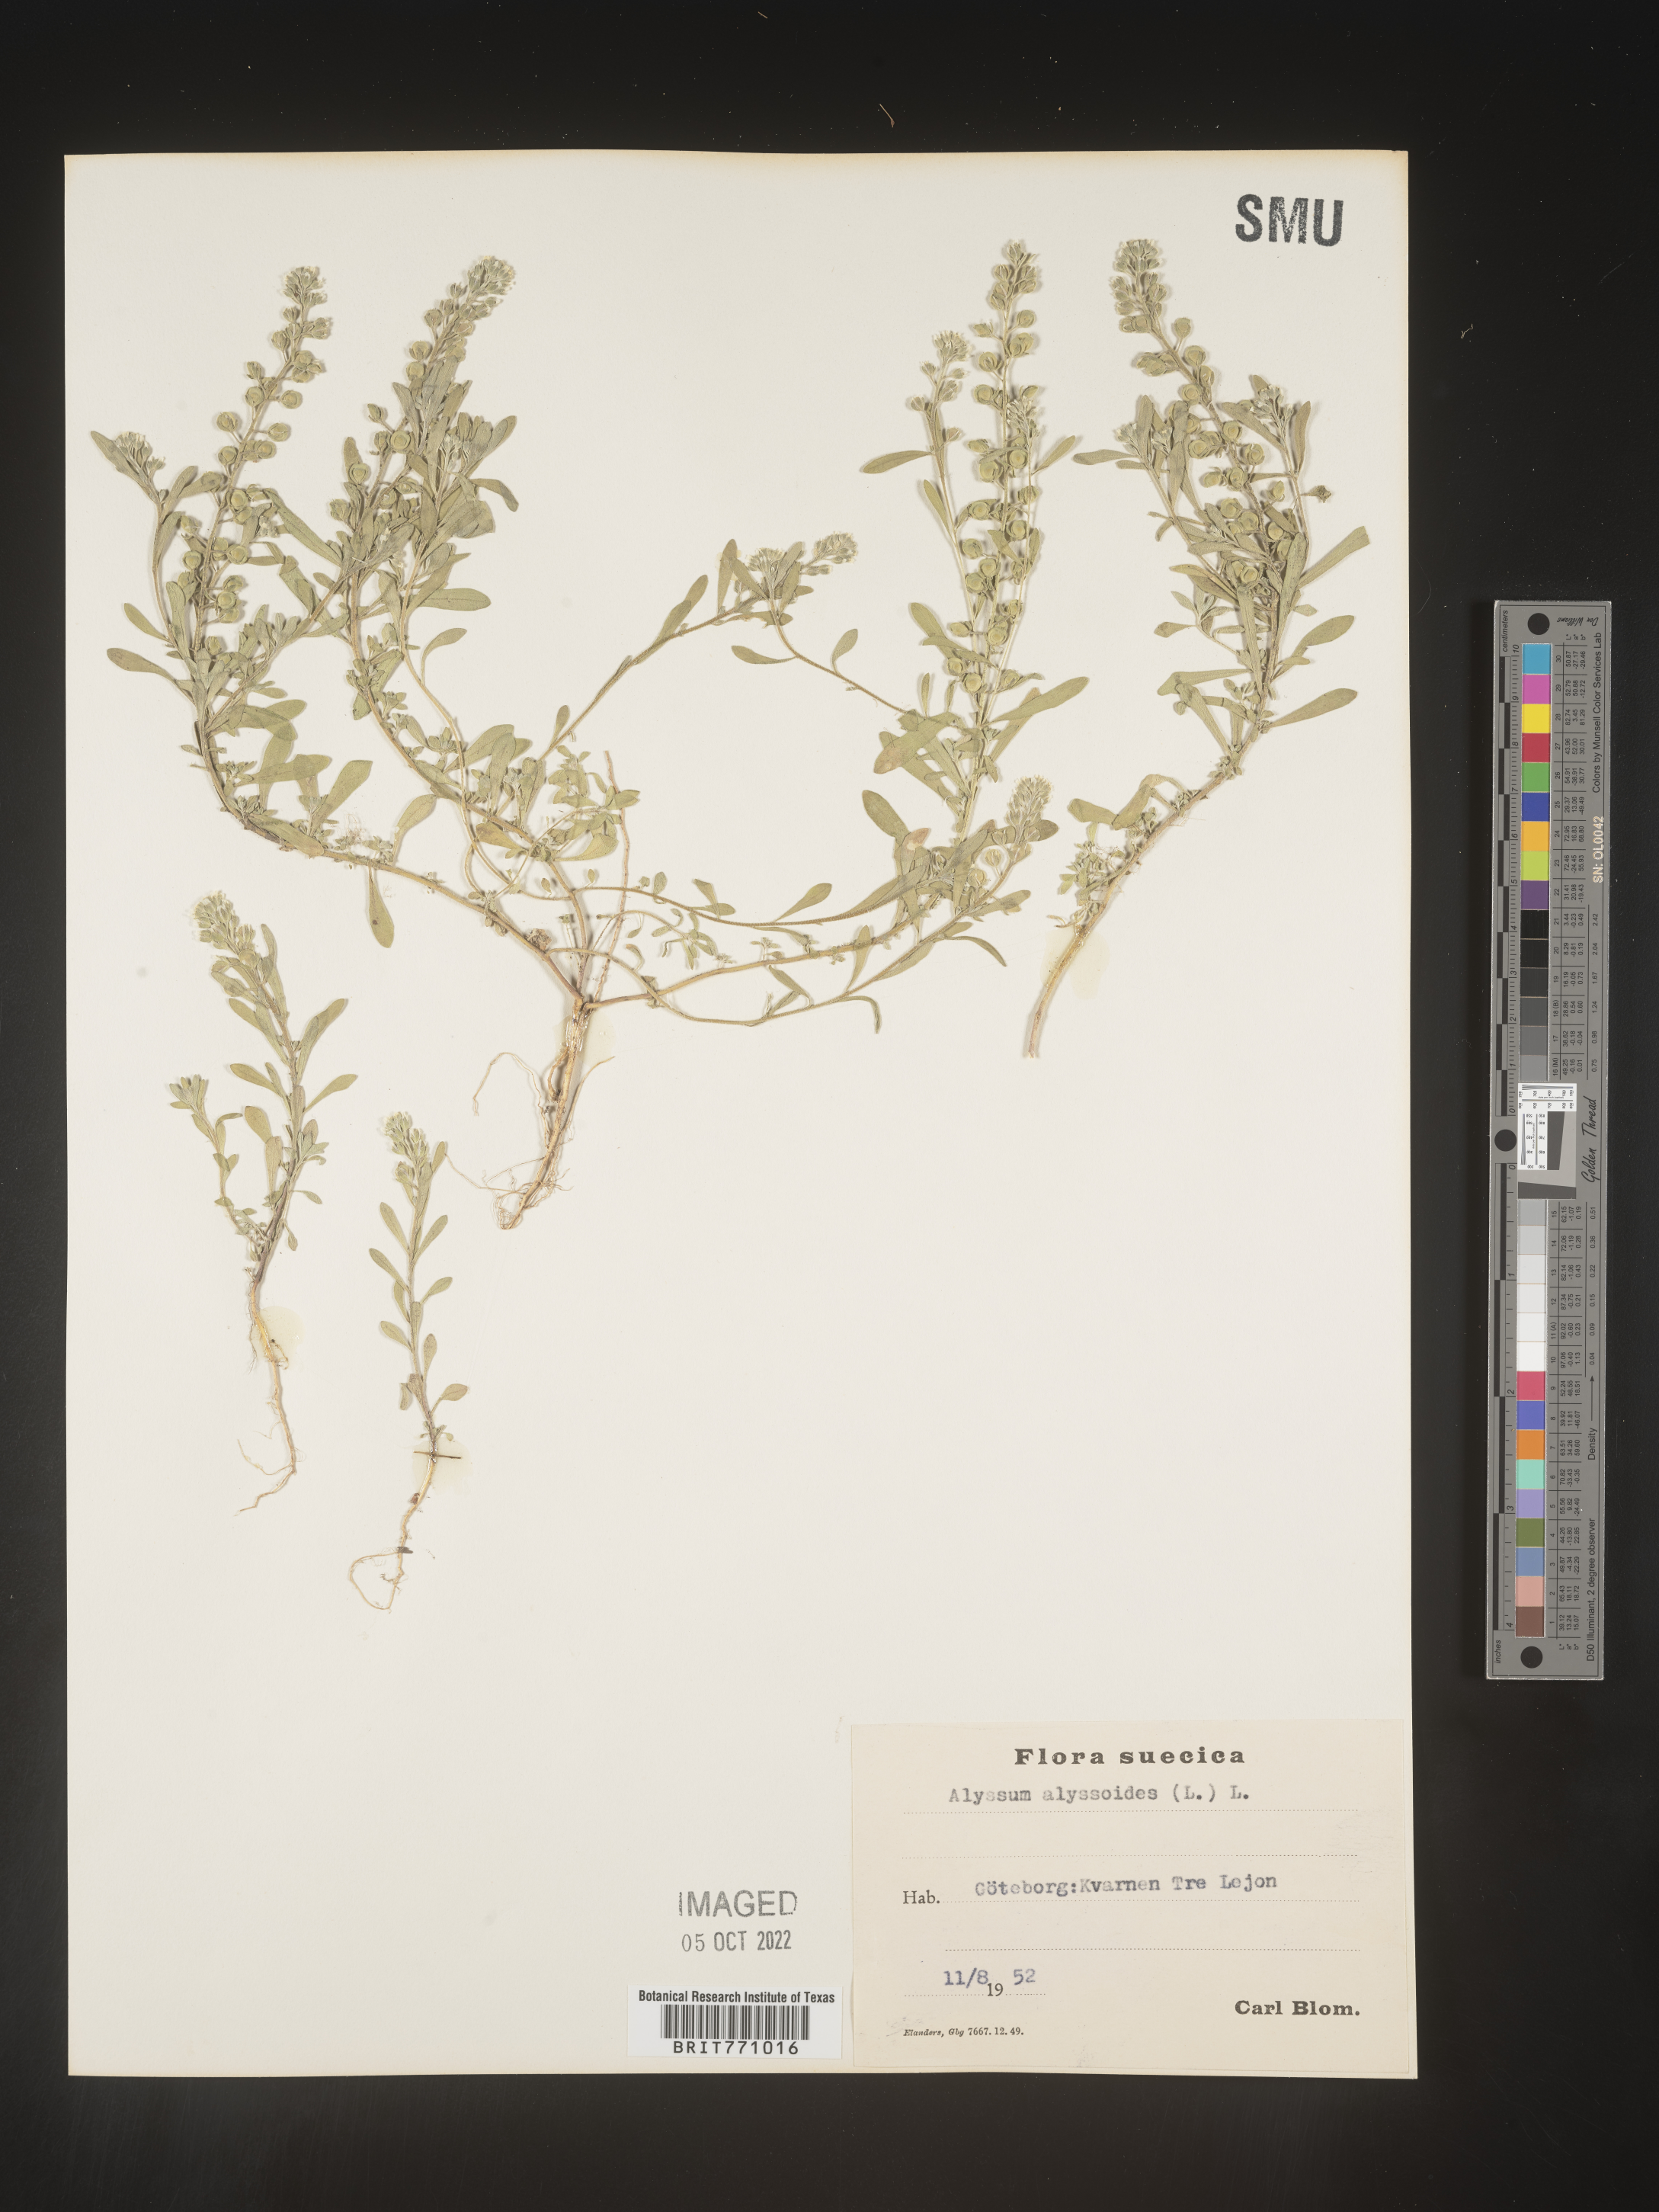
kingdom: Plantae
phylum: Tracheophyta
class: Magnoliopsida
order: Brassicales
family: Brassicaceae
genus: Alyssum
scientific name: Alyssum
